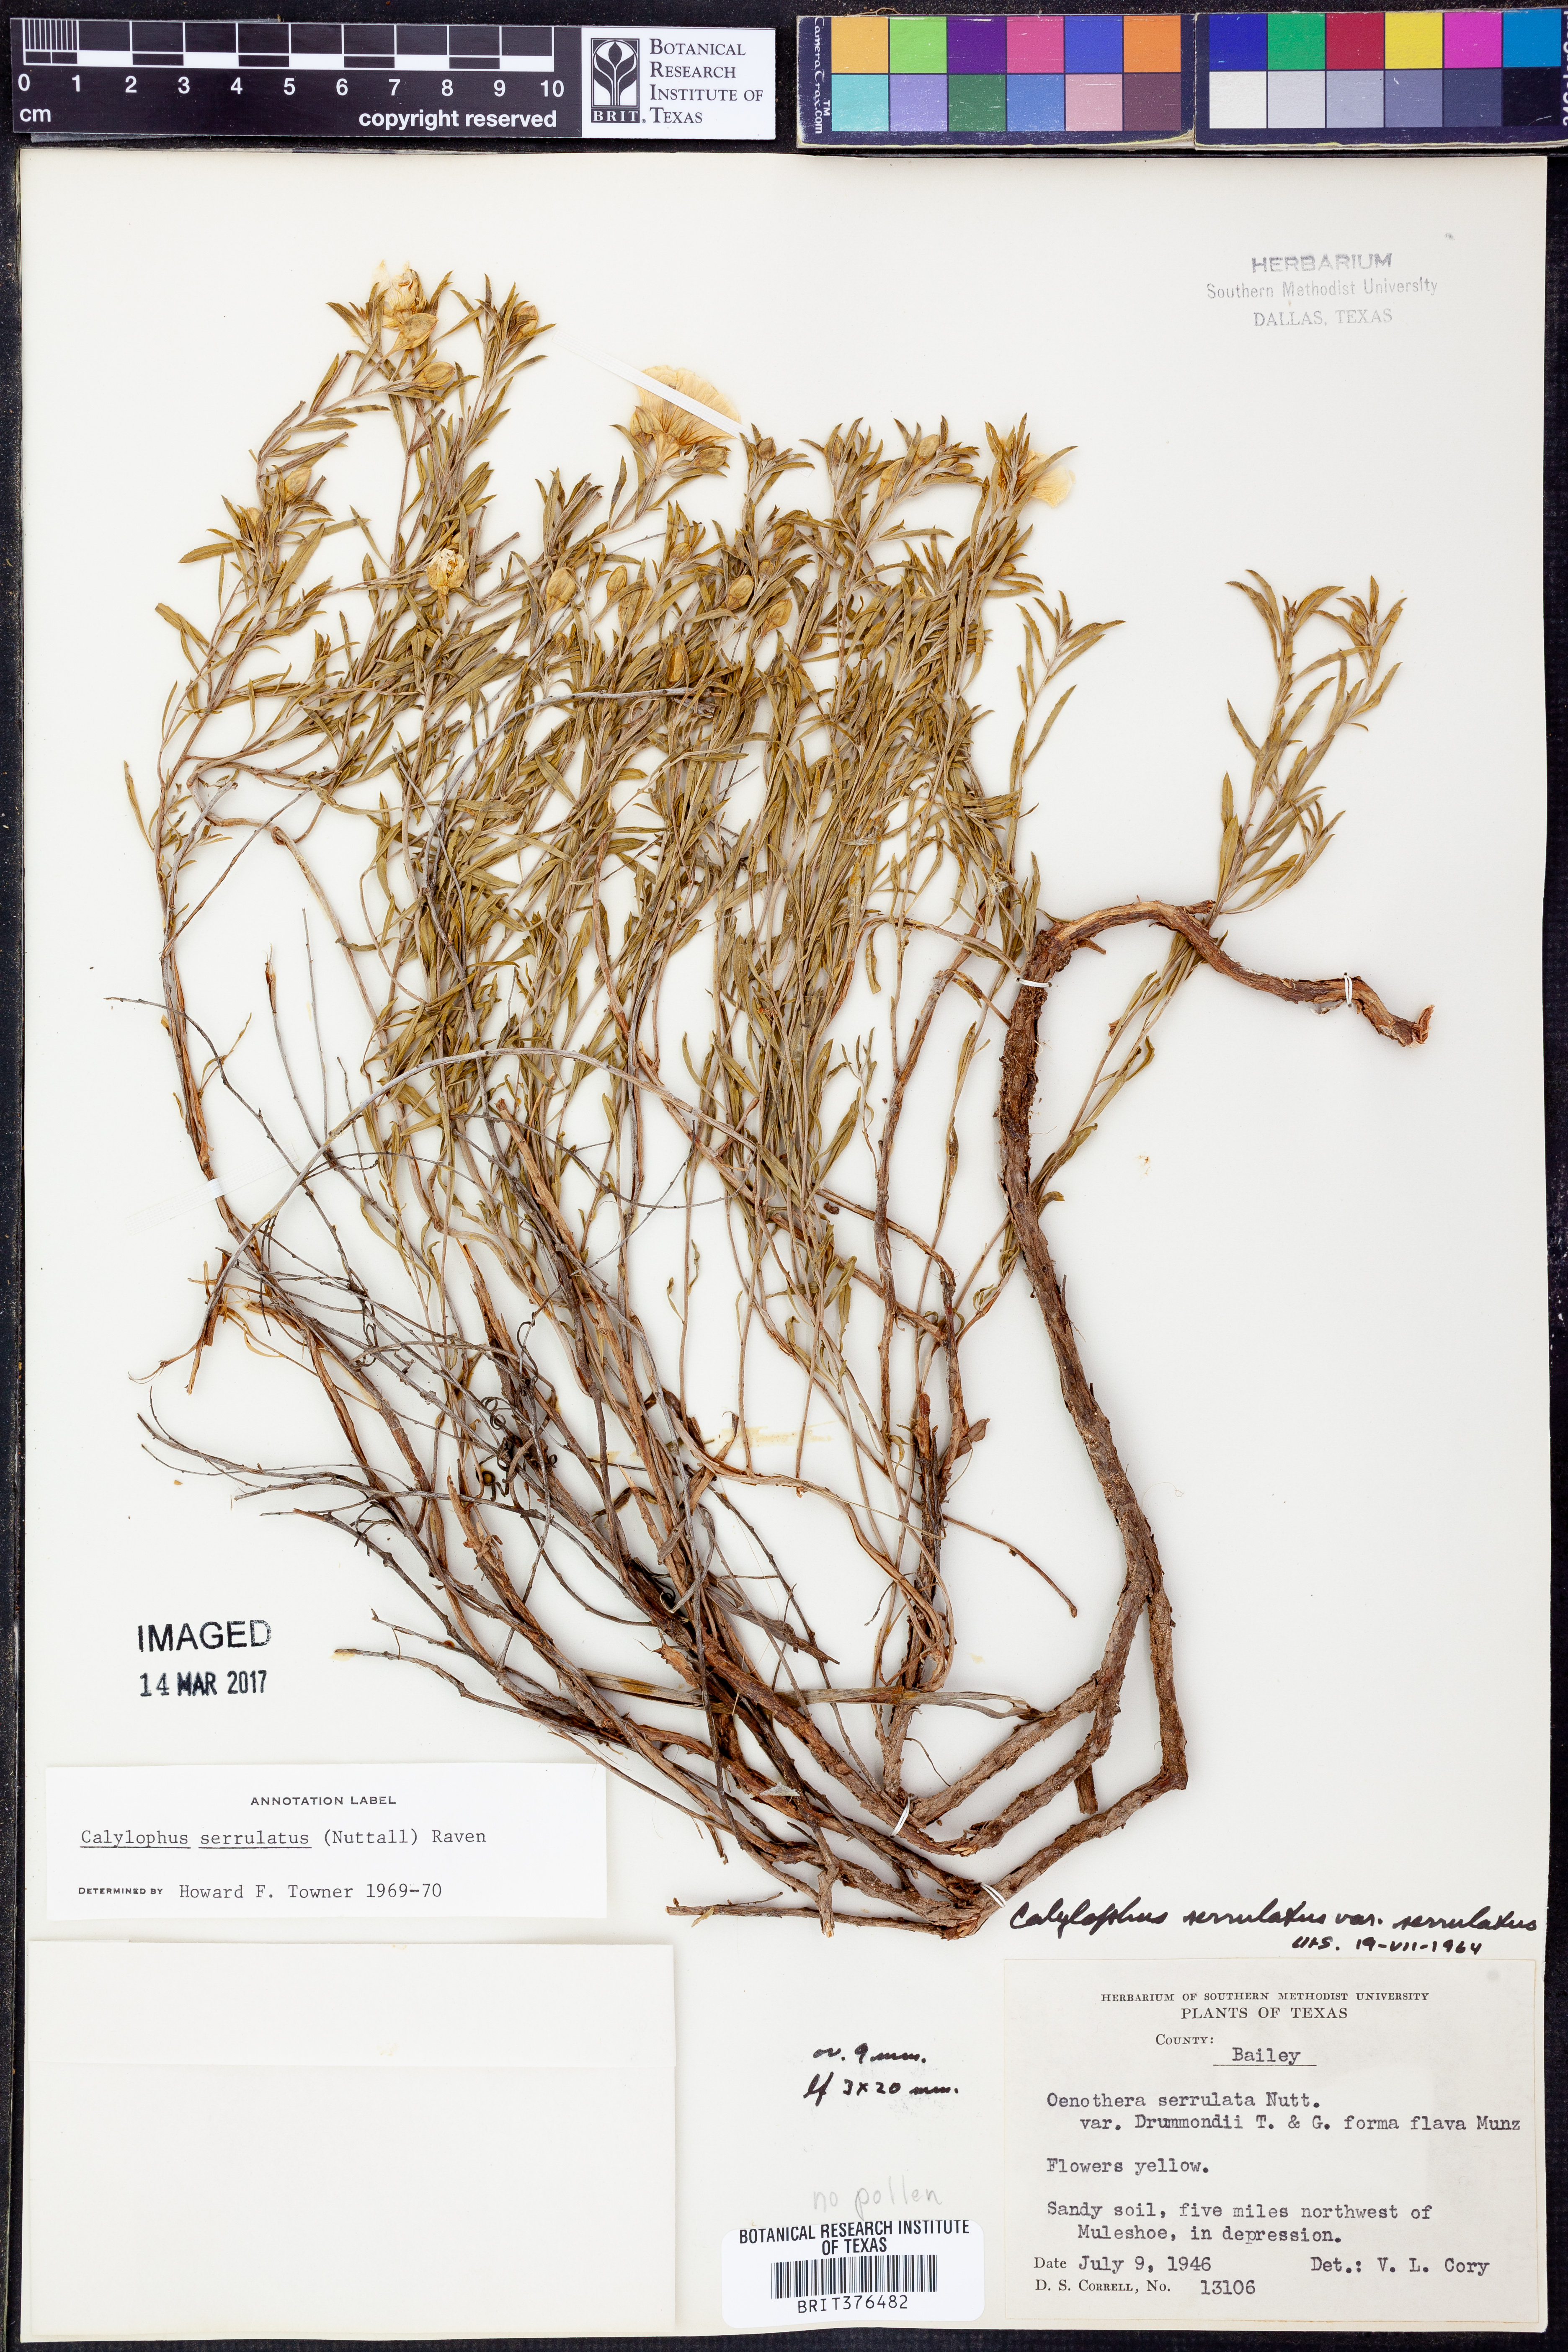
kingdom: Plantae
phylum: Tracheophyta
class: Magnoliopsida
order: Myrtales
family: Onagraceae
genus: Oenothera
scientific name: Oenothera serrulata
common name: Half-shrub calylophus
